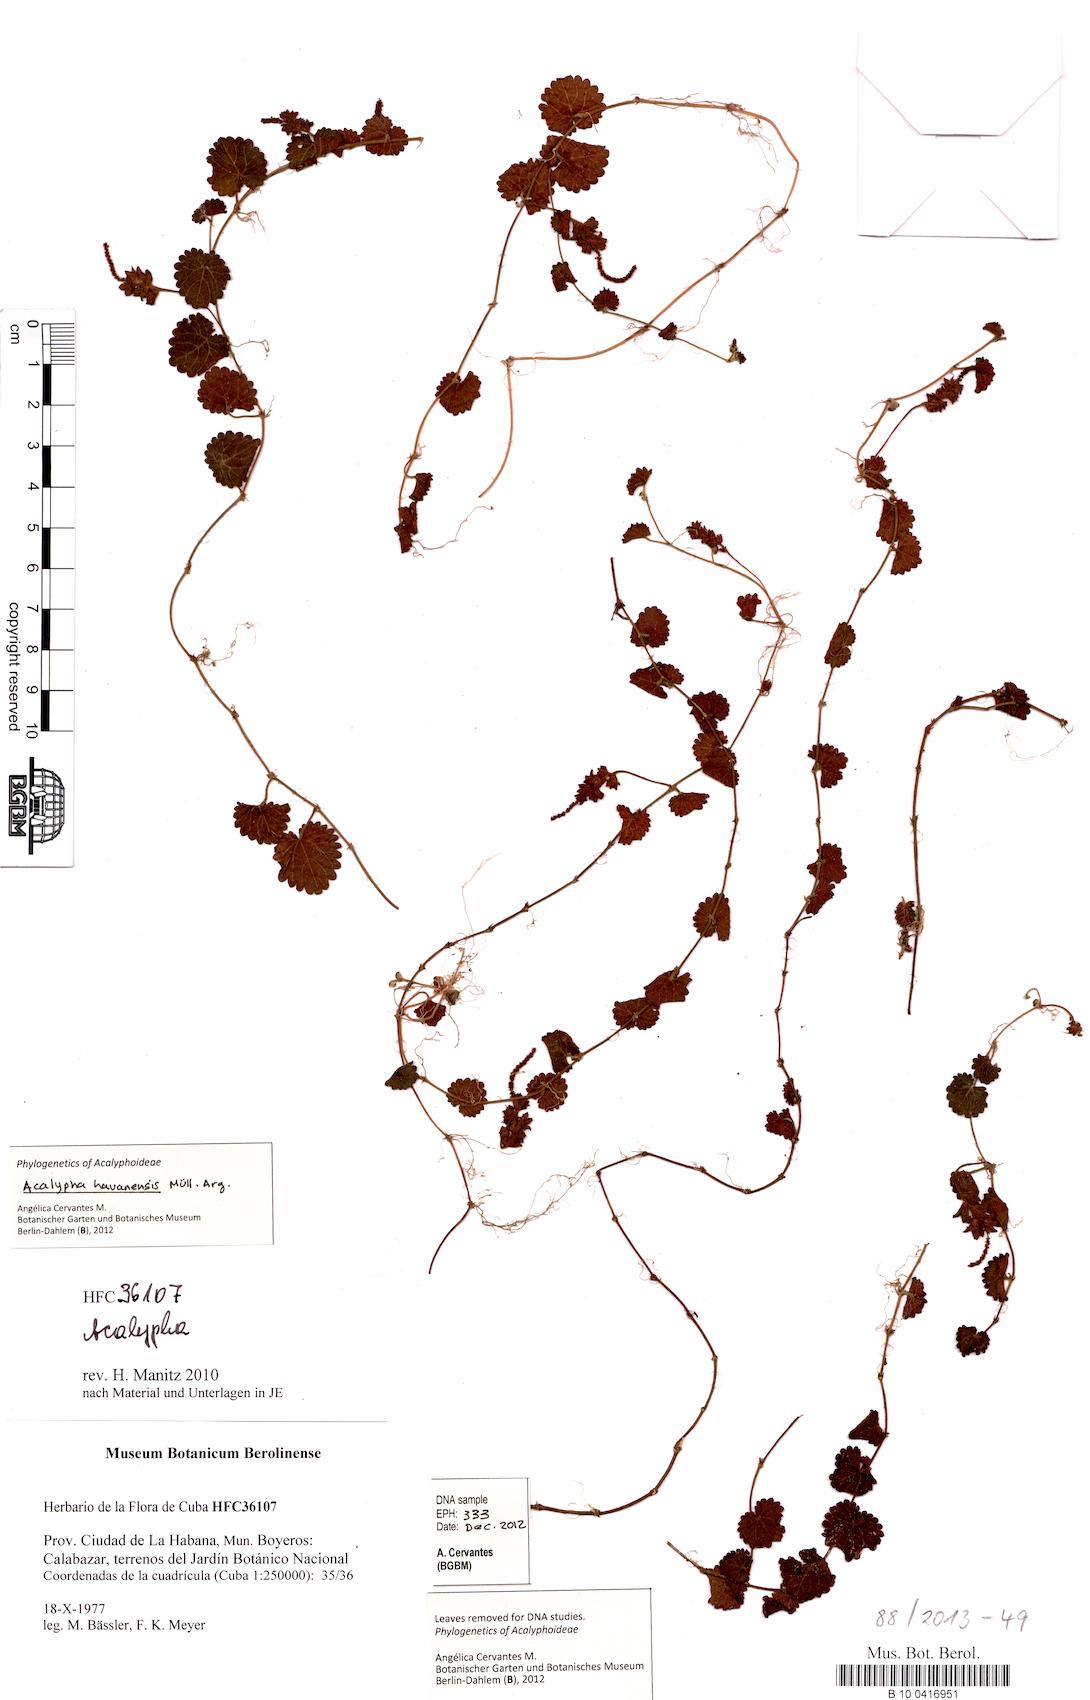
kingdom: Plantae
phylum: Tracheophyta
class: Magnoliopsida
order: Malpighiales
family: Euphorbiaceae
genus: Acalypha
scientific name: Acalypha havanensis
